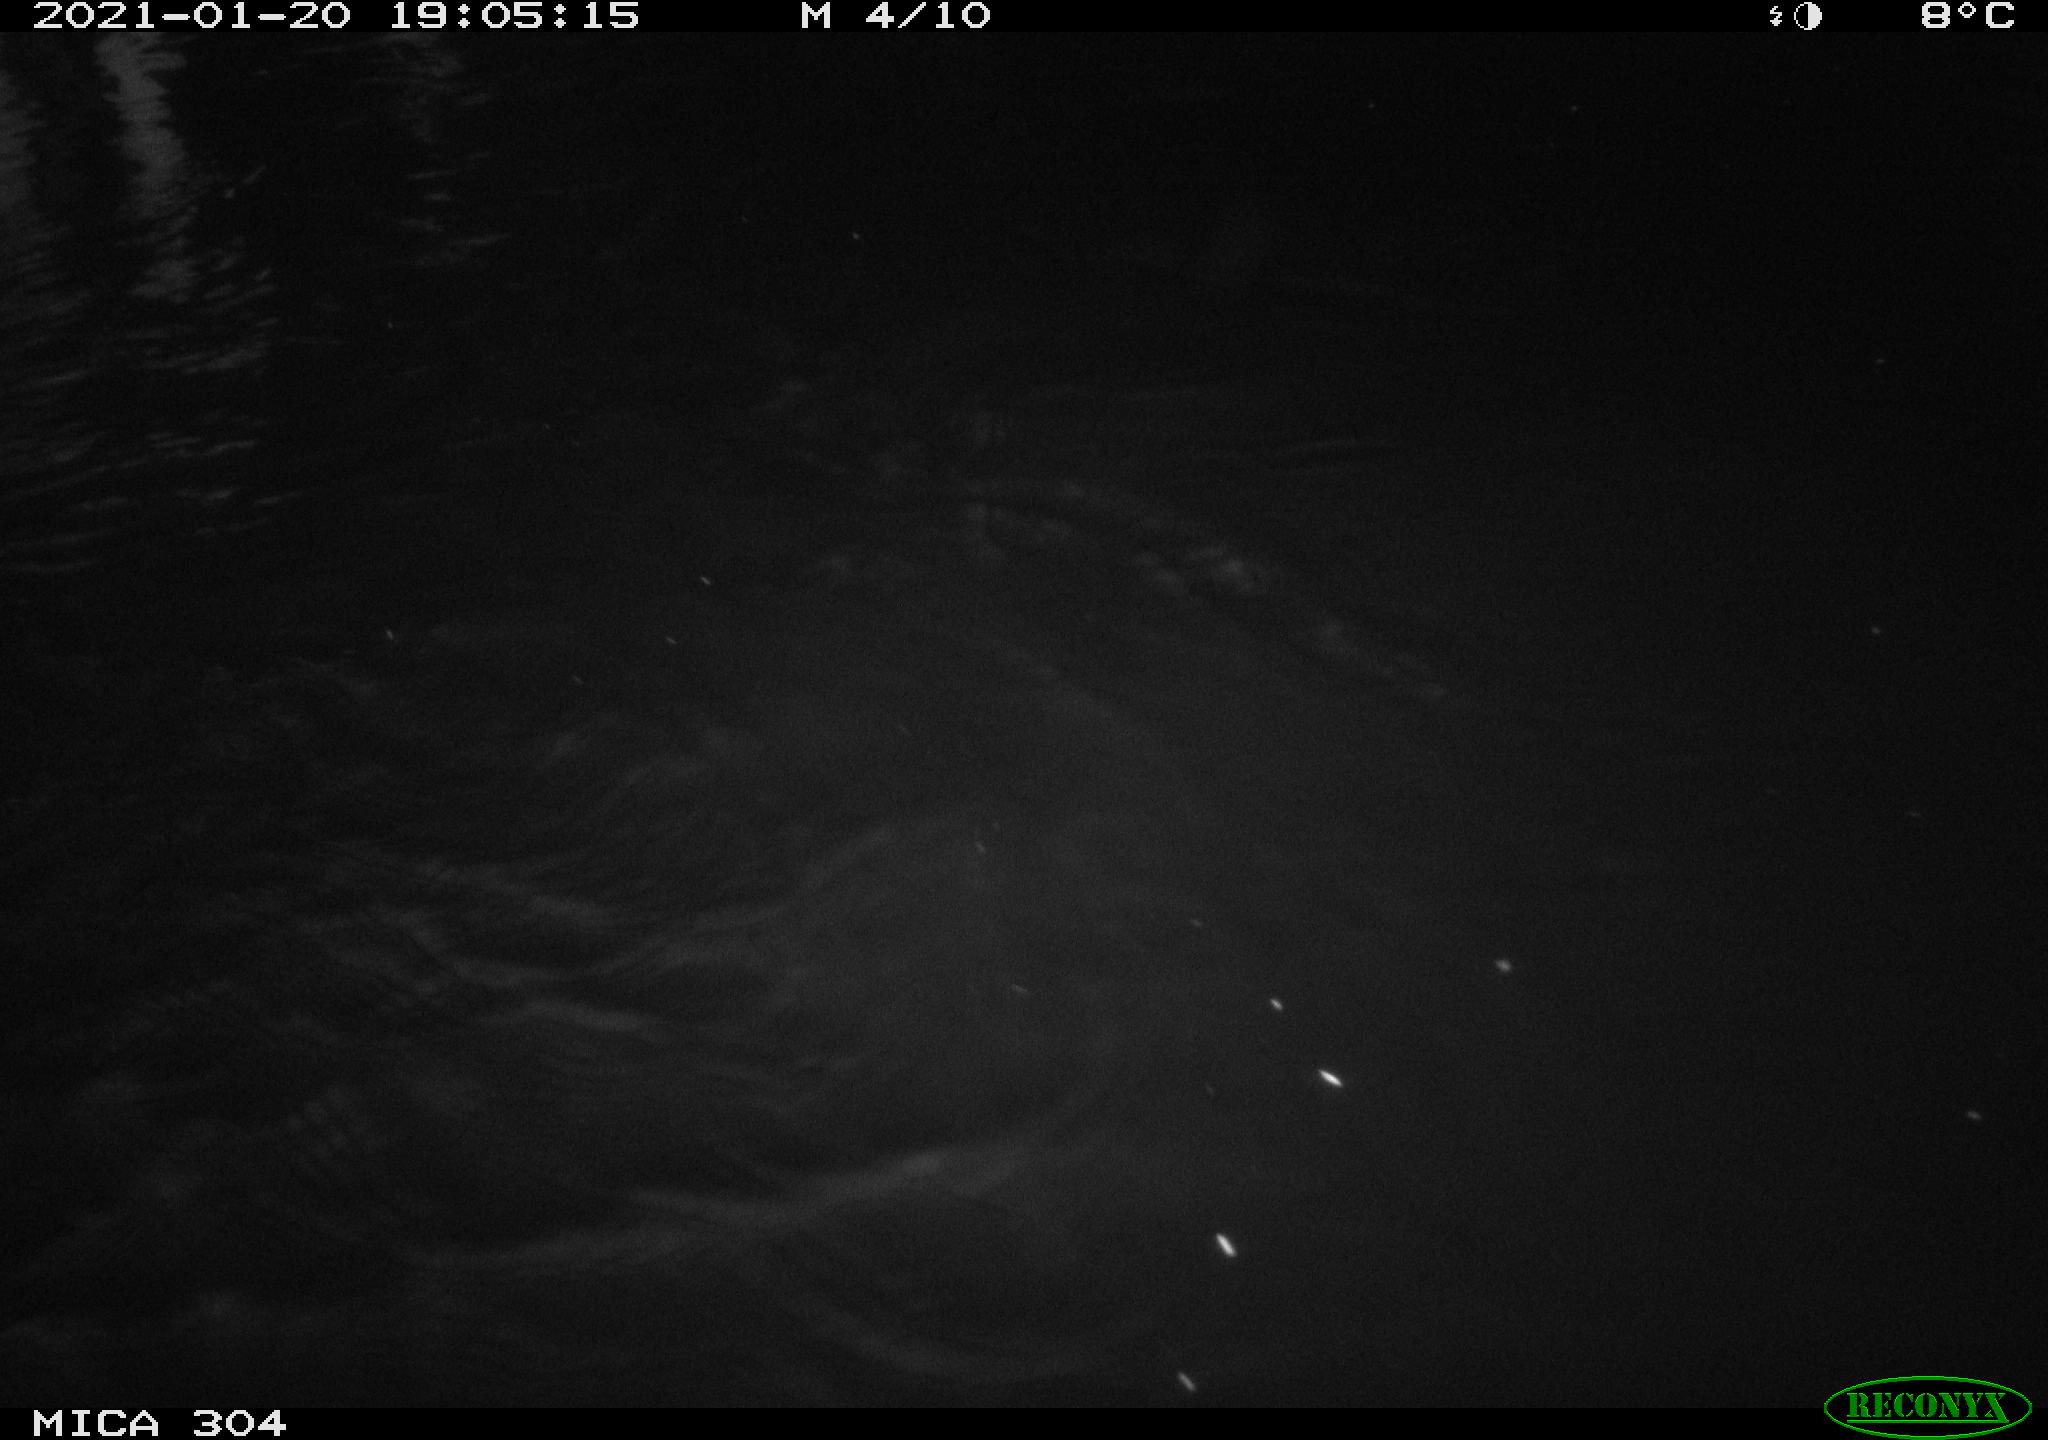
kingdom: Animalia
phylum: Chordata
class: Mammalia
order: Rodentia
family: Muridae
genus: Rattus
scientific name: Rattus norvegicus
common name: Brown rat
